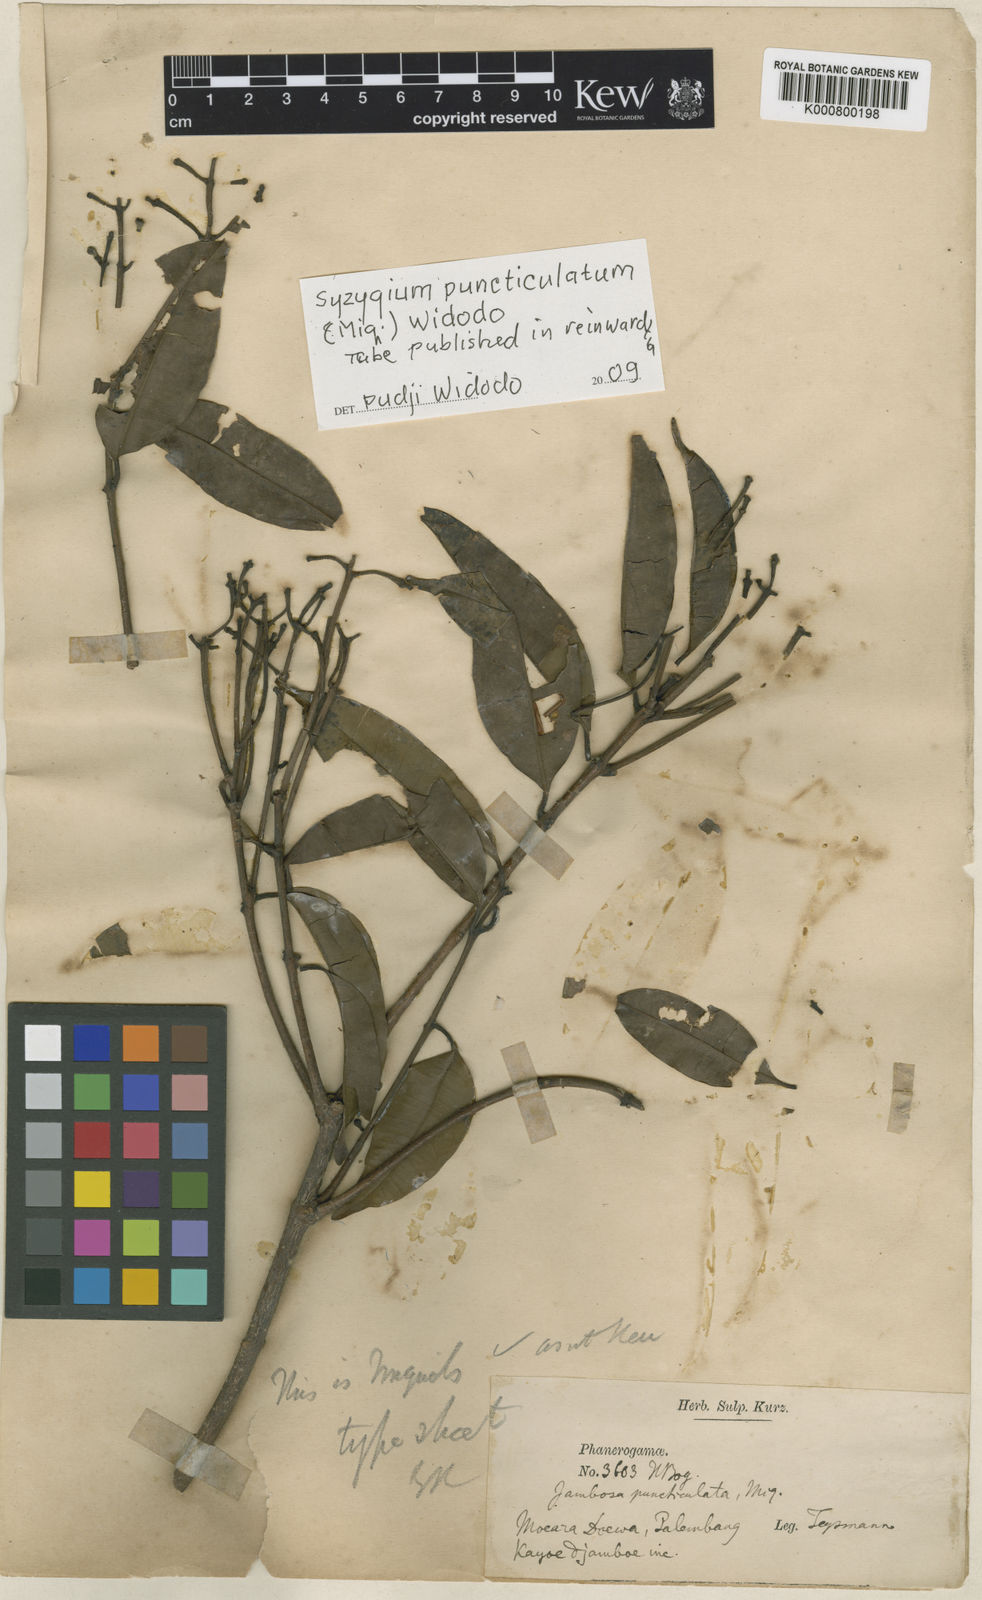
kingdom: Plantae
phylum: Tracheophyta
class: Magnoliopsida
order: Myrtales
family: Myrtaceae
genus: Syzygium
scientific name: Syzygium
